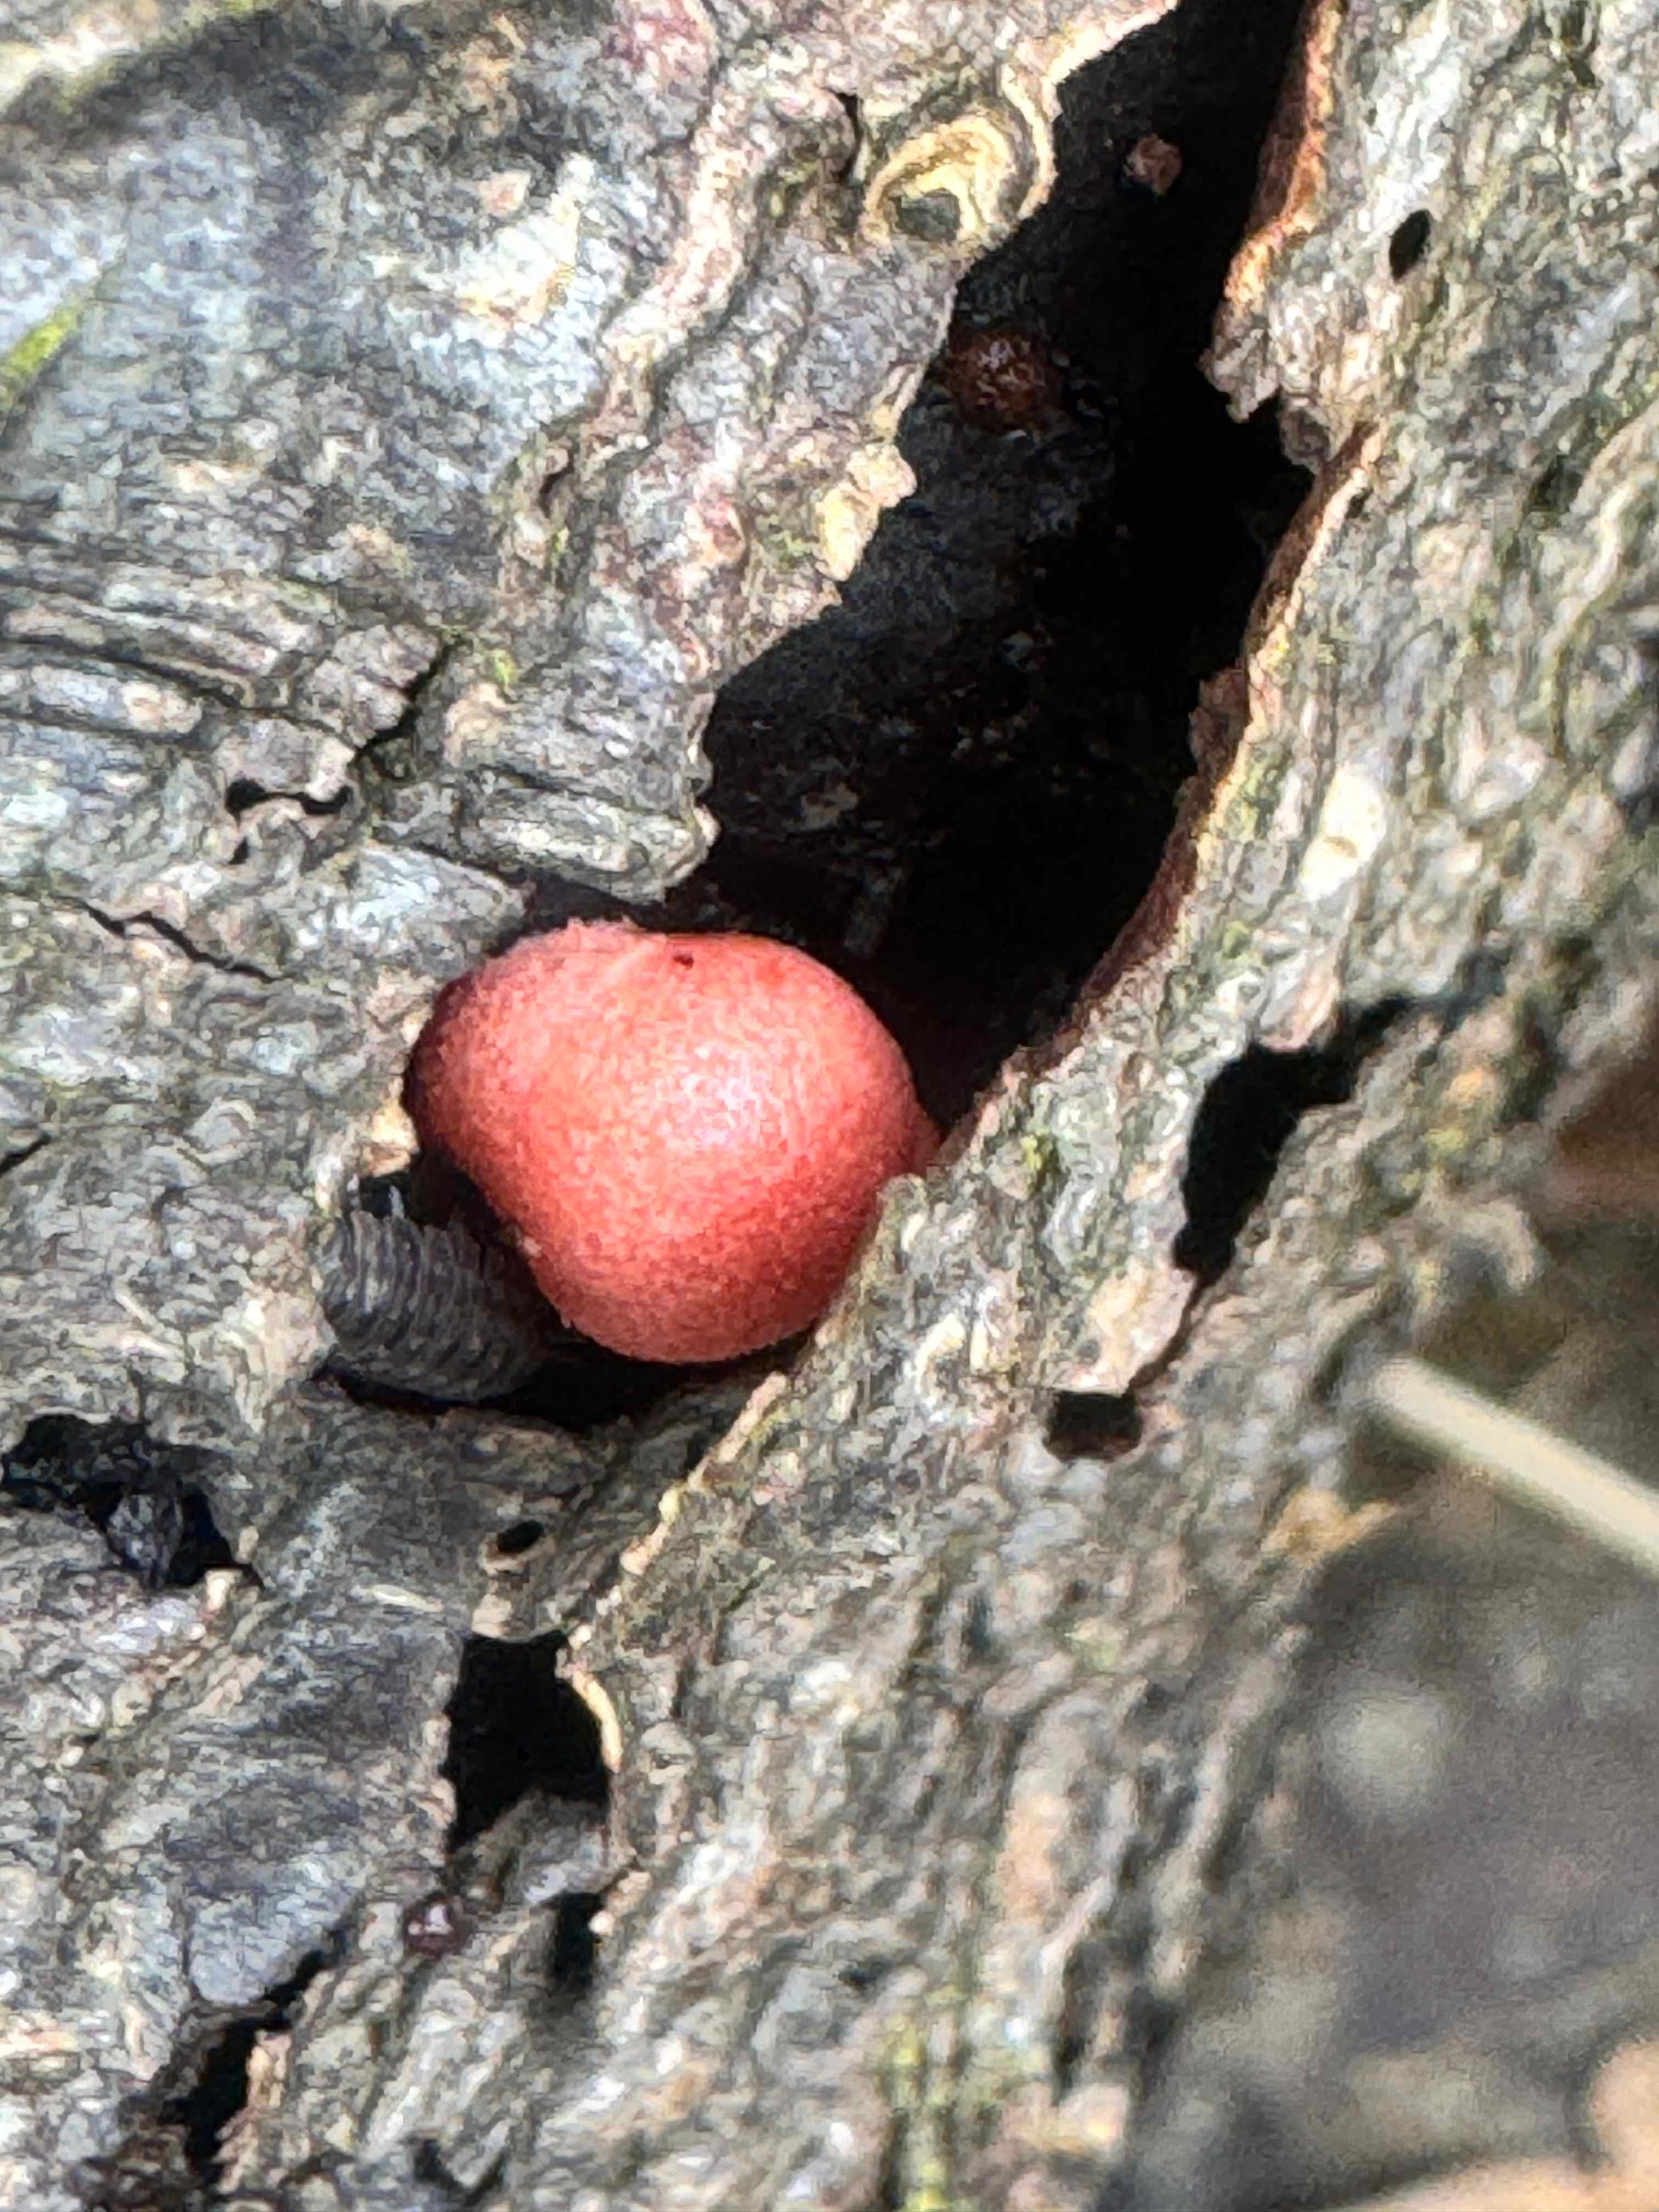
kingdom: Protozoa
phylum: Mycetozoa
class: Myxomycetes
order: Cribrariales
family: Tubiferaceae
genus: Lycogala
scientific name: Lycogala epidendrum
